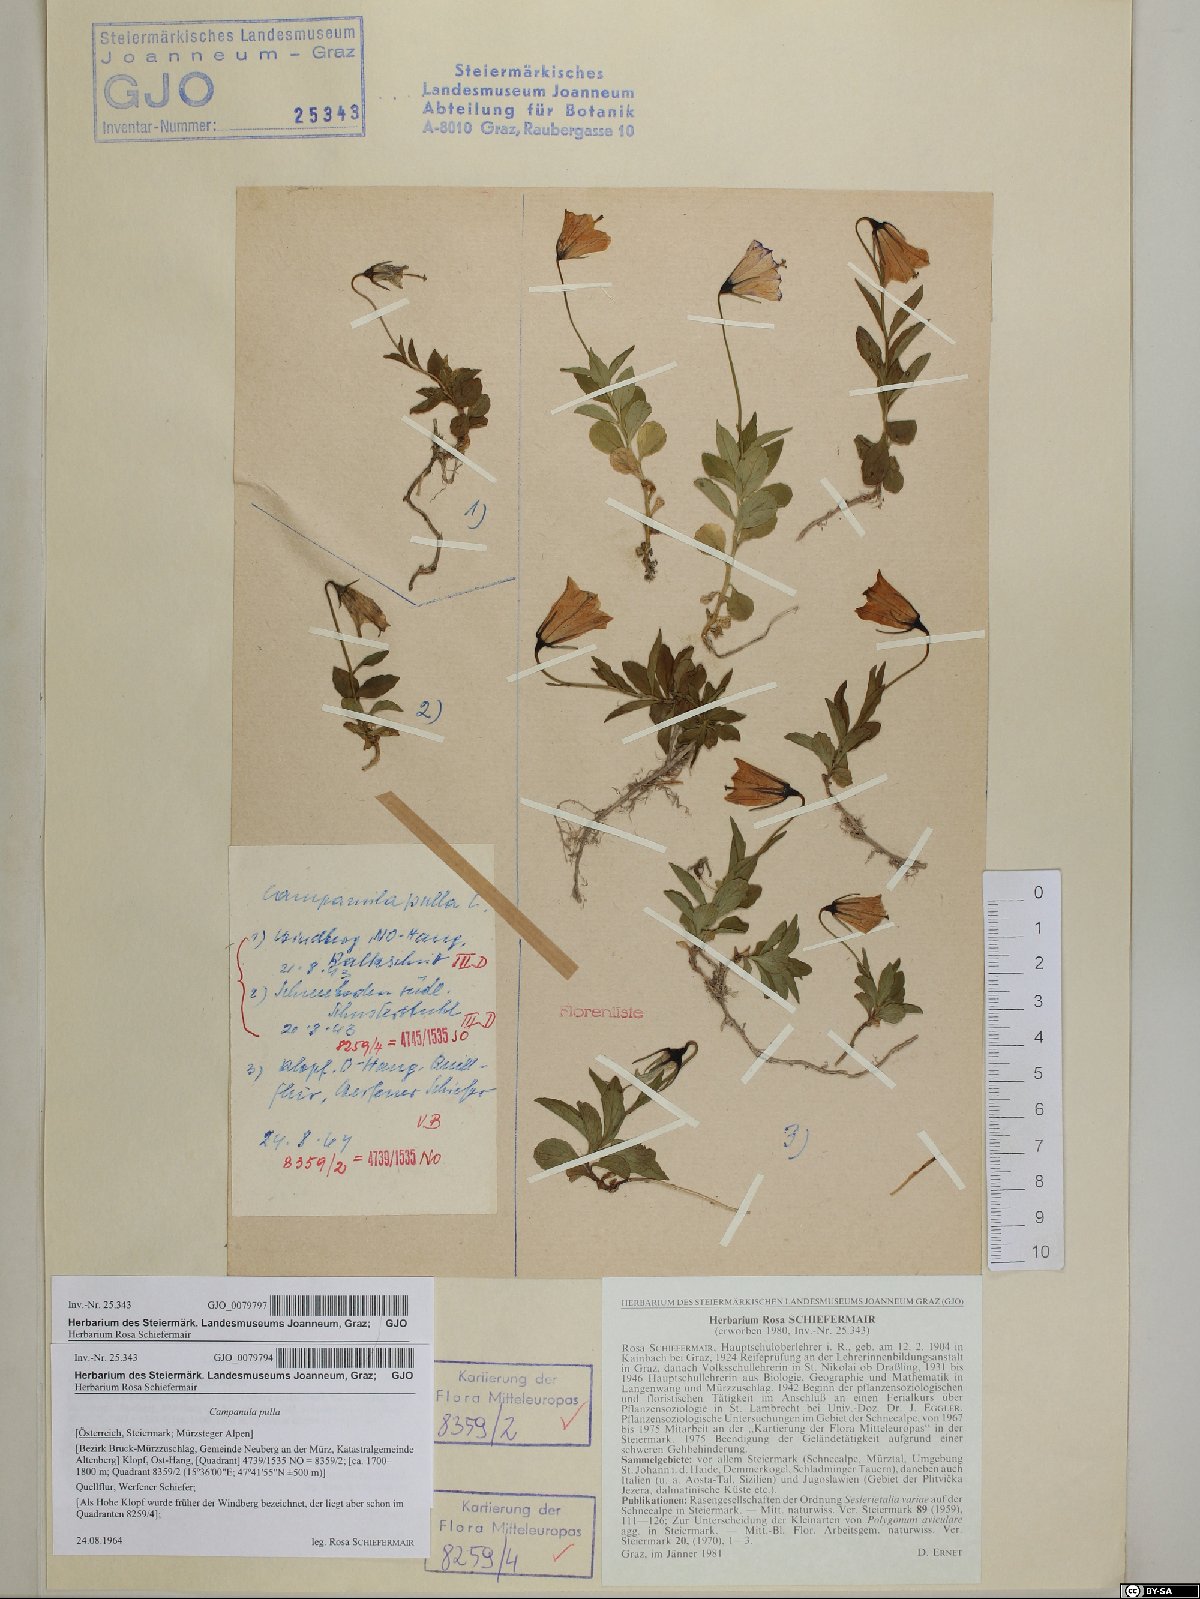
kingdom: Plantae
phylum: Tracheophyta
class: Magnoliopsida
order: Asterales
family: Campanulaceae
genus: Campanula
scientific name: Campanula pulla
